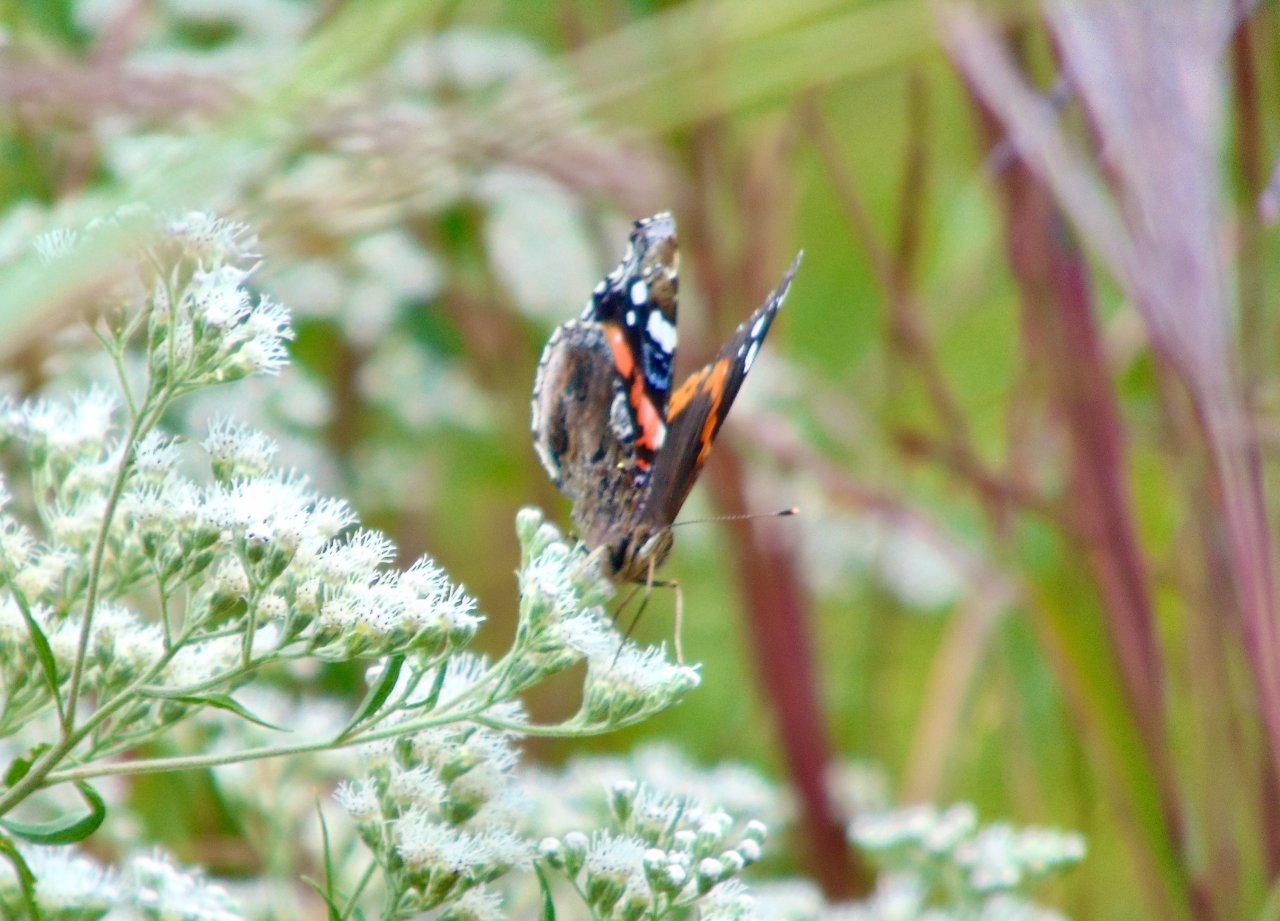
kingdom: Animalia
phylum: Arthropoda
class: Insecta
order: Lepidoptera
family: Nymphalidae
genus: Vanessa
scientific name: Vanessa atalanta
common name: Red Admiral
